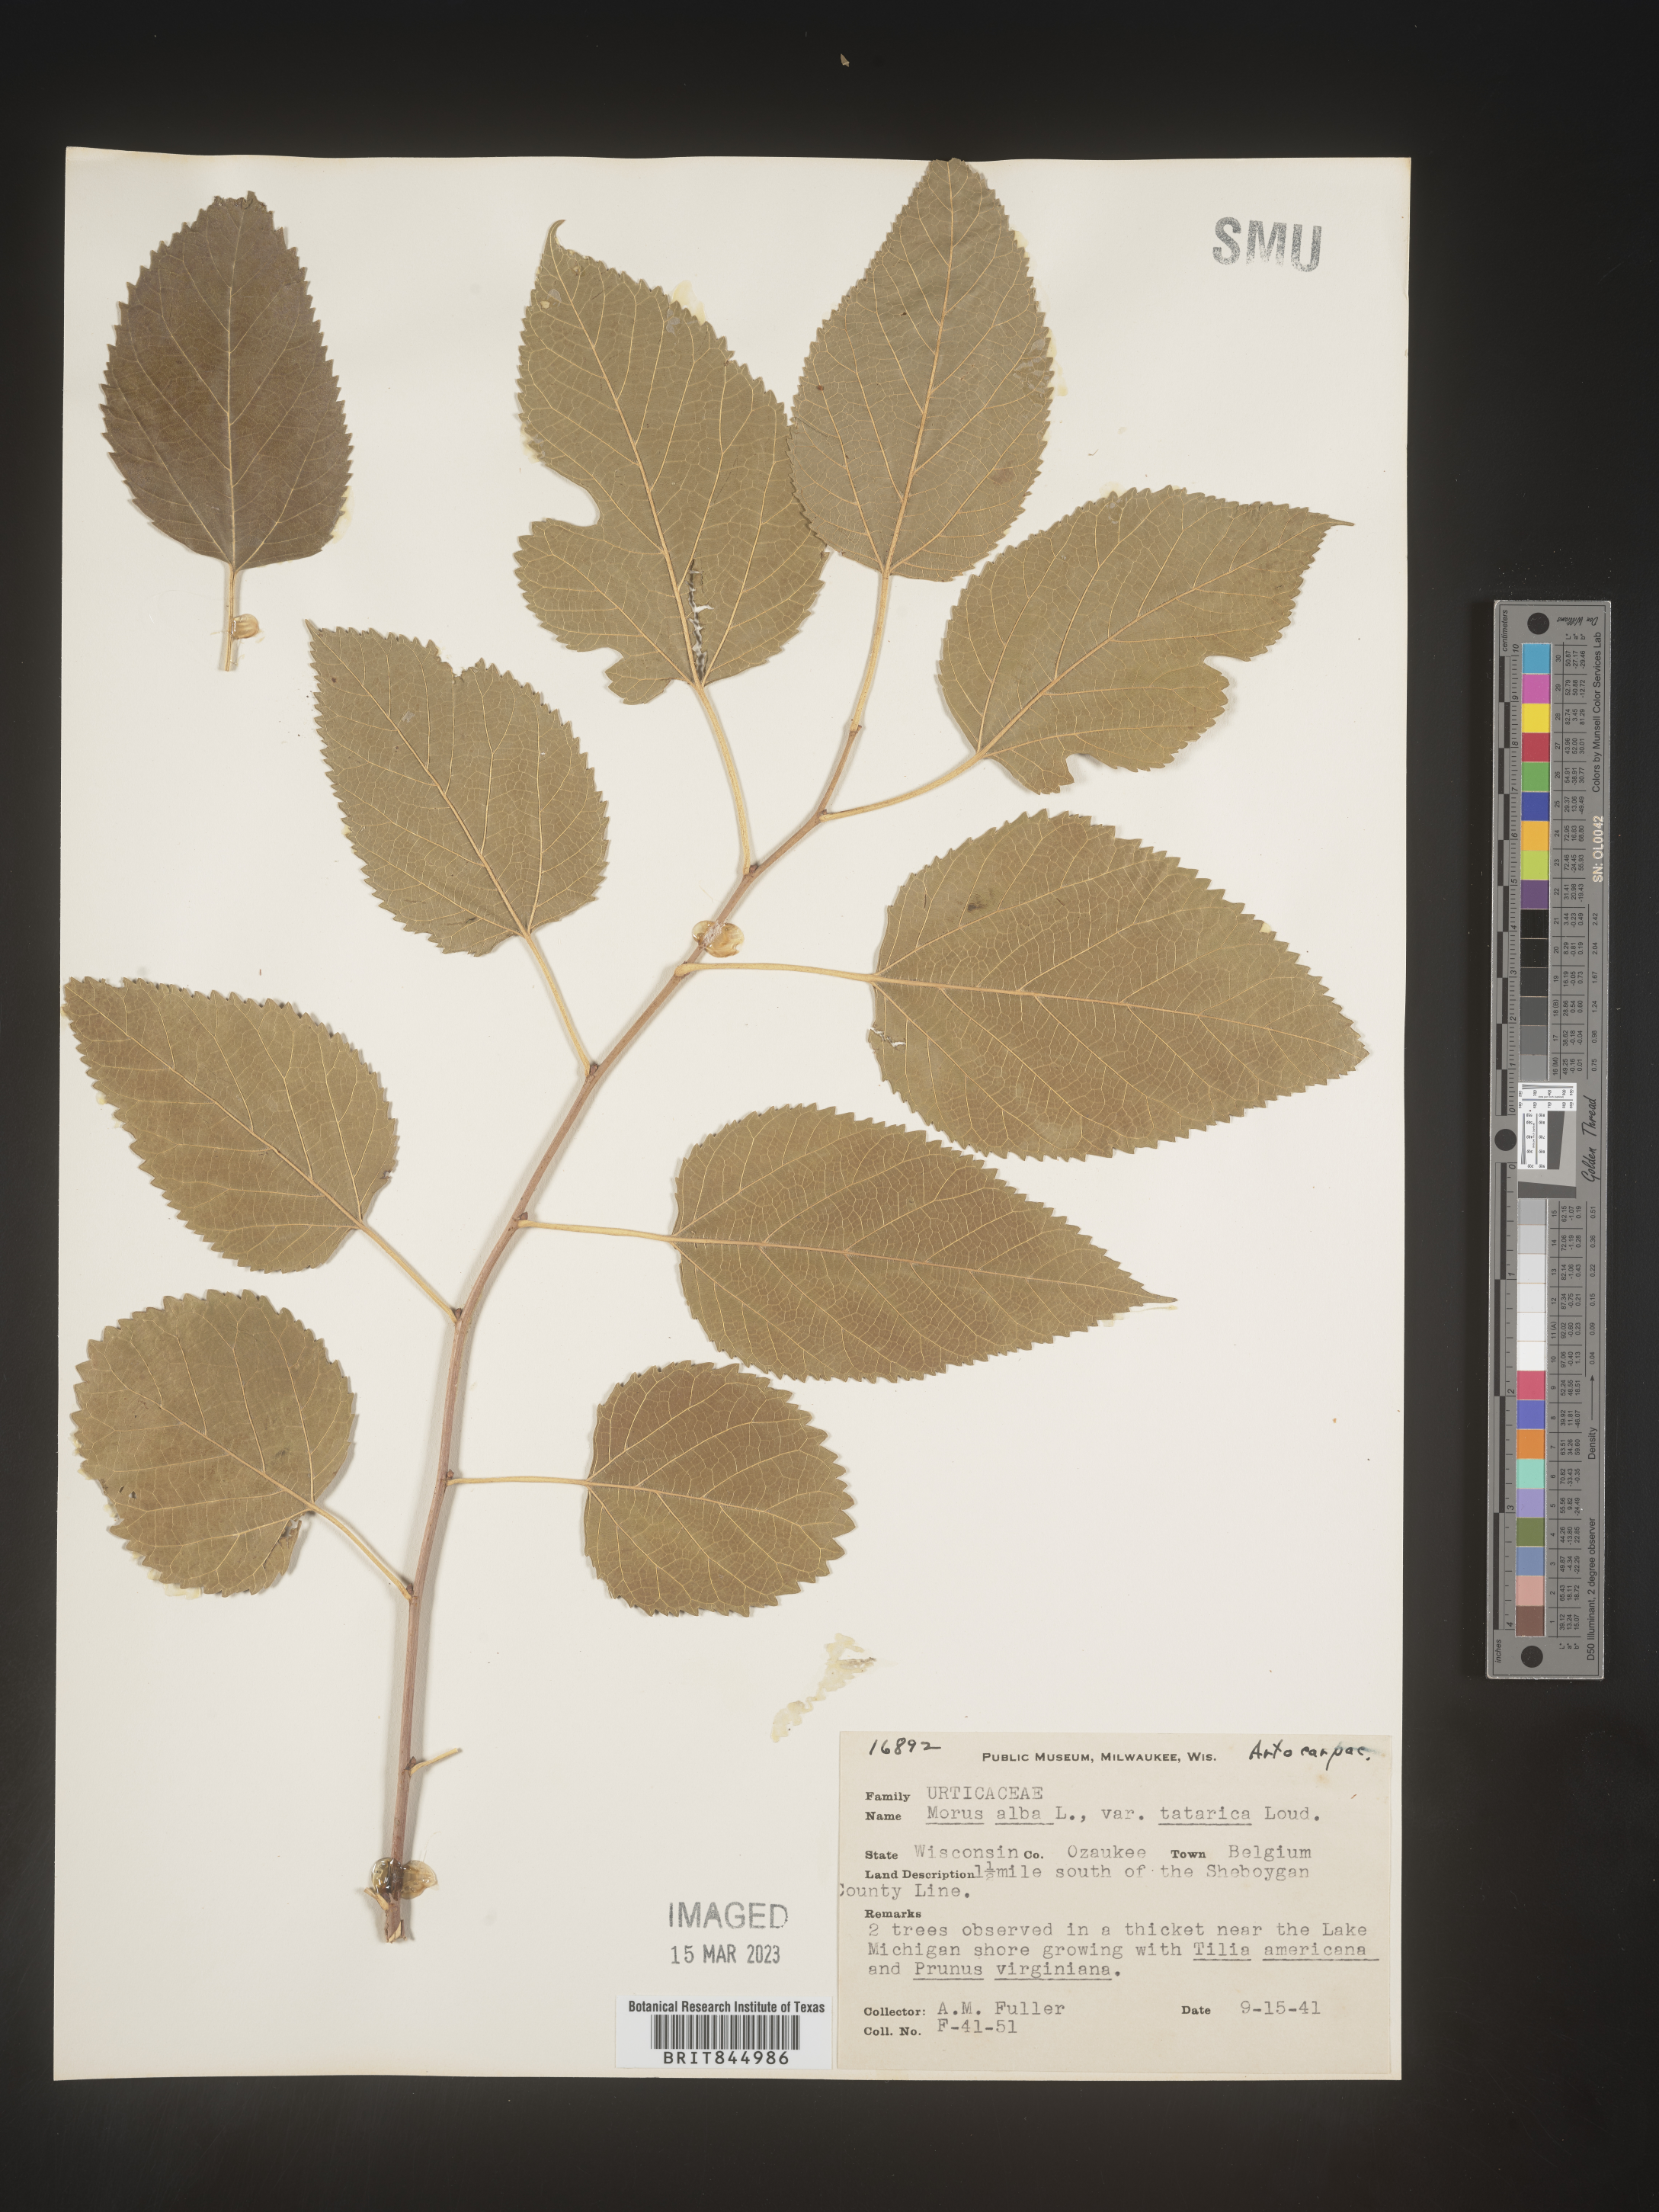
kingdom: Plantae
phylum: Tracheophyta
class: Magnoliopsida
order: Rosales
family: Moraceae
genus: Morus
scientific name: Morus alba
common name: White mulberry
